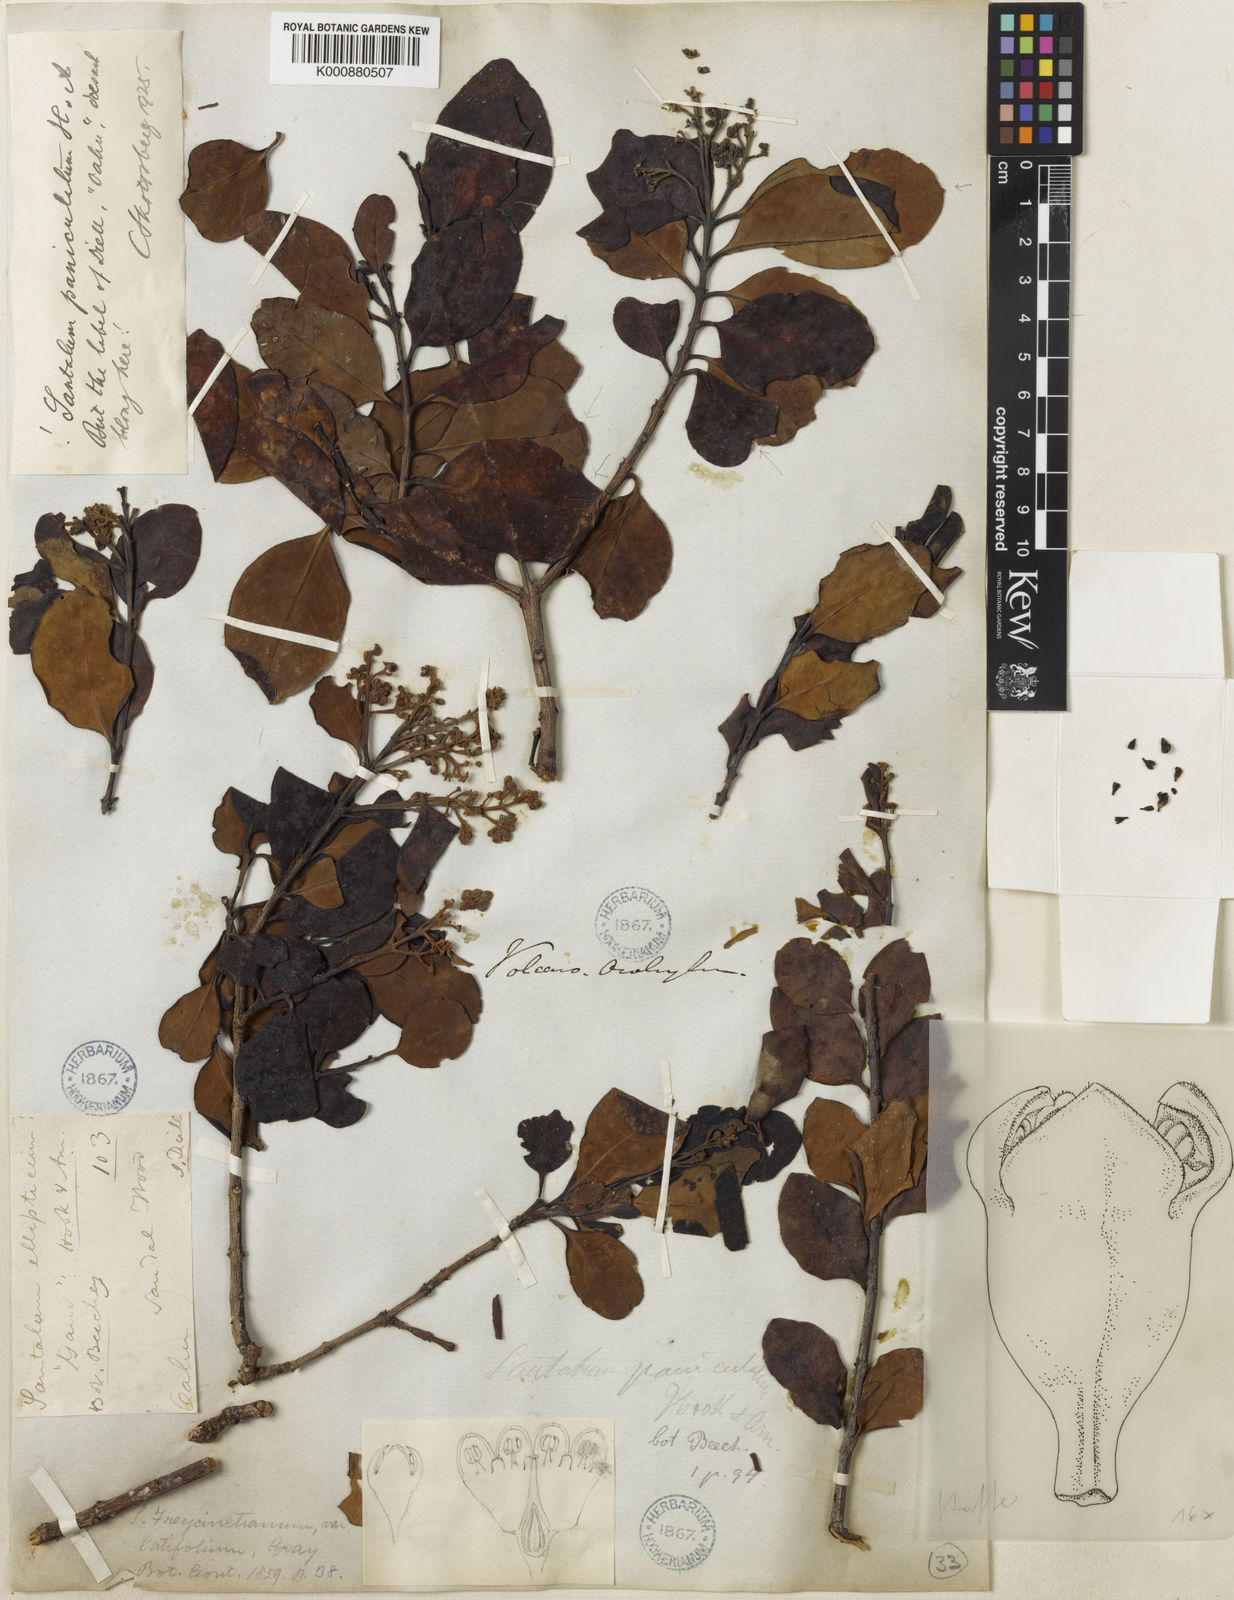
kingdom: Plantae
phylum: Tracheophyta
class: Magnoliopsida
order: Santalales
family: Santalaceae
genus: Santalum
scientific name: Santalum paniculatum
